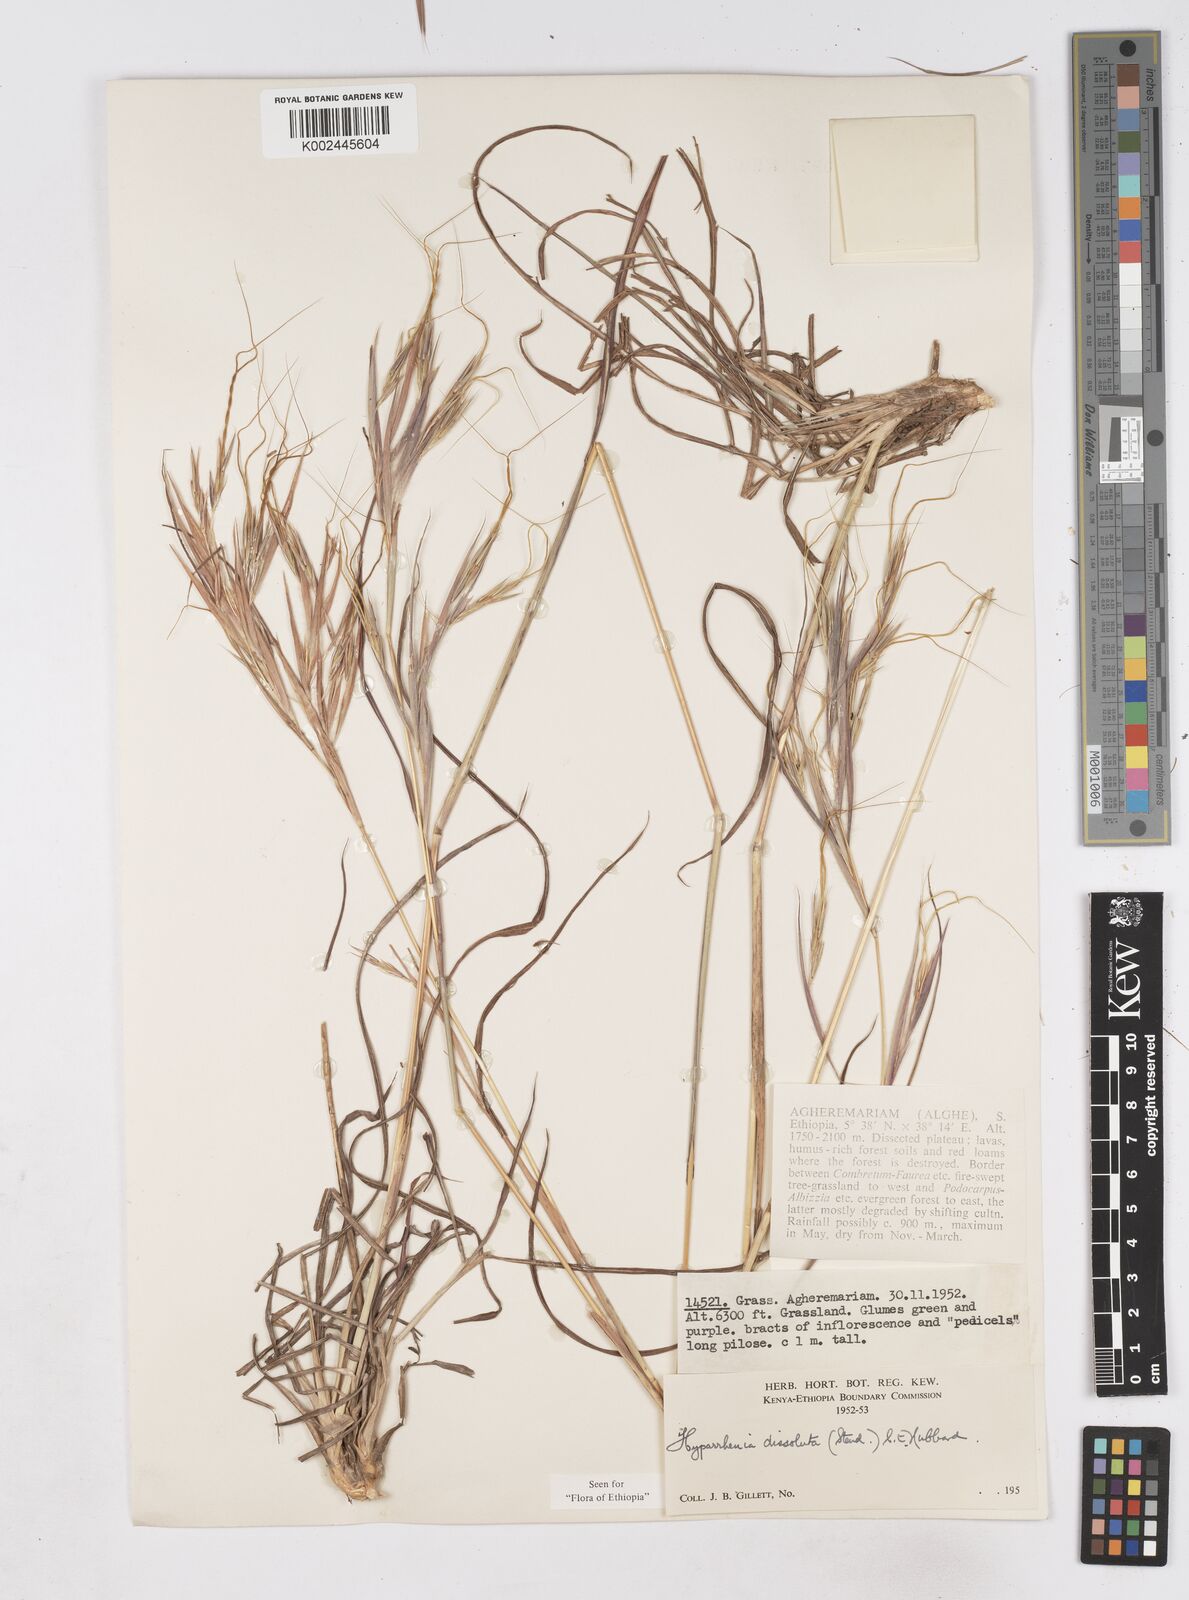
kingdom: Plantae
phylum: Tracheophyta
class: Liliopsida
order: Poales
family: Poaceae
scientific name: Poaceae
